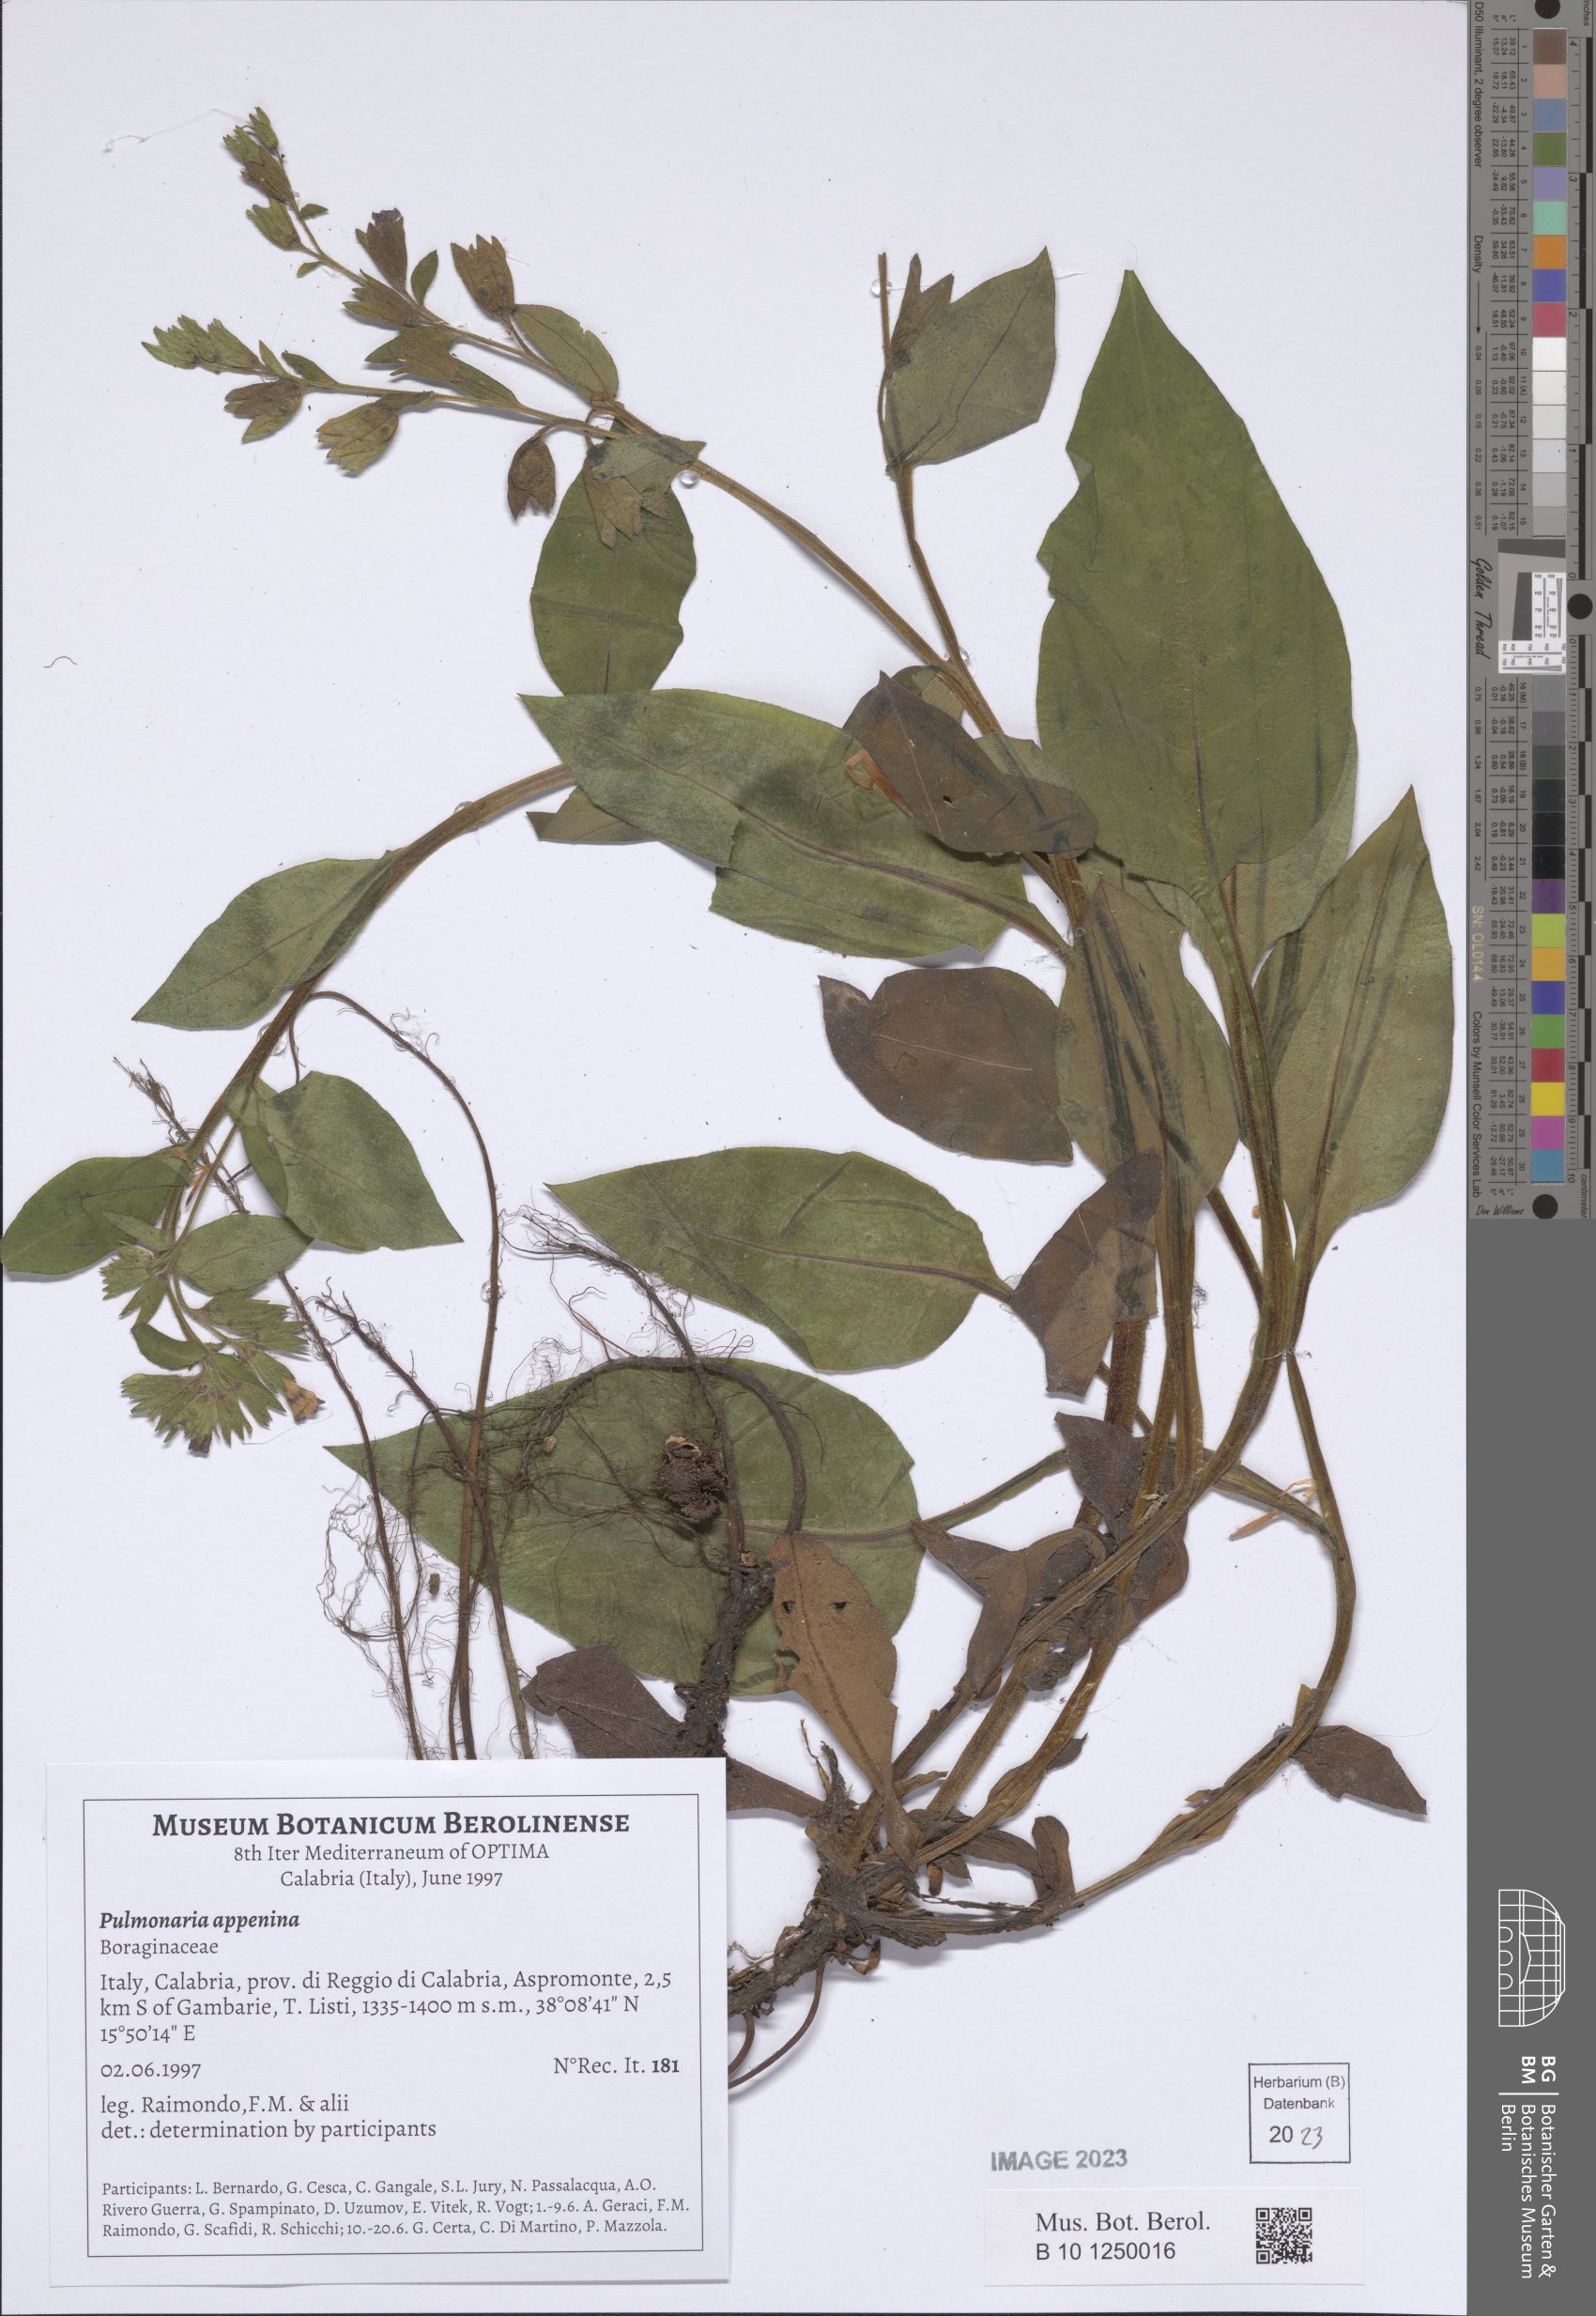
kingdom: Plantae
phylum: Tracheophyta
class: Magnoliopsida
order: Boraginales
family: Boraginaceae
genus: Pulmonaria
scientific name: Pulmonaria hirta
